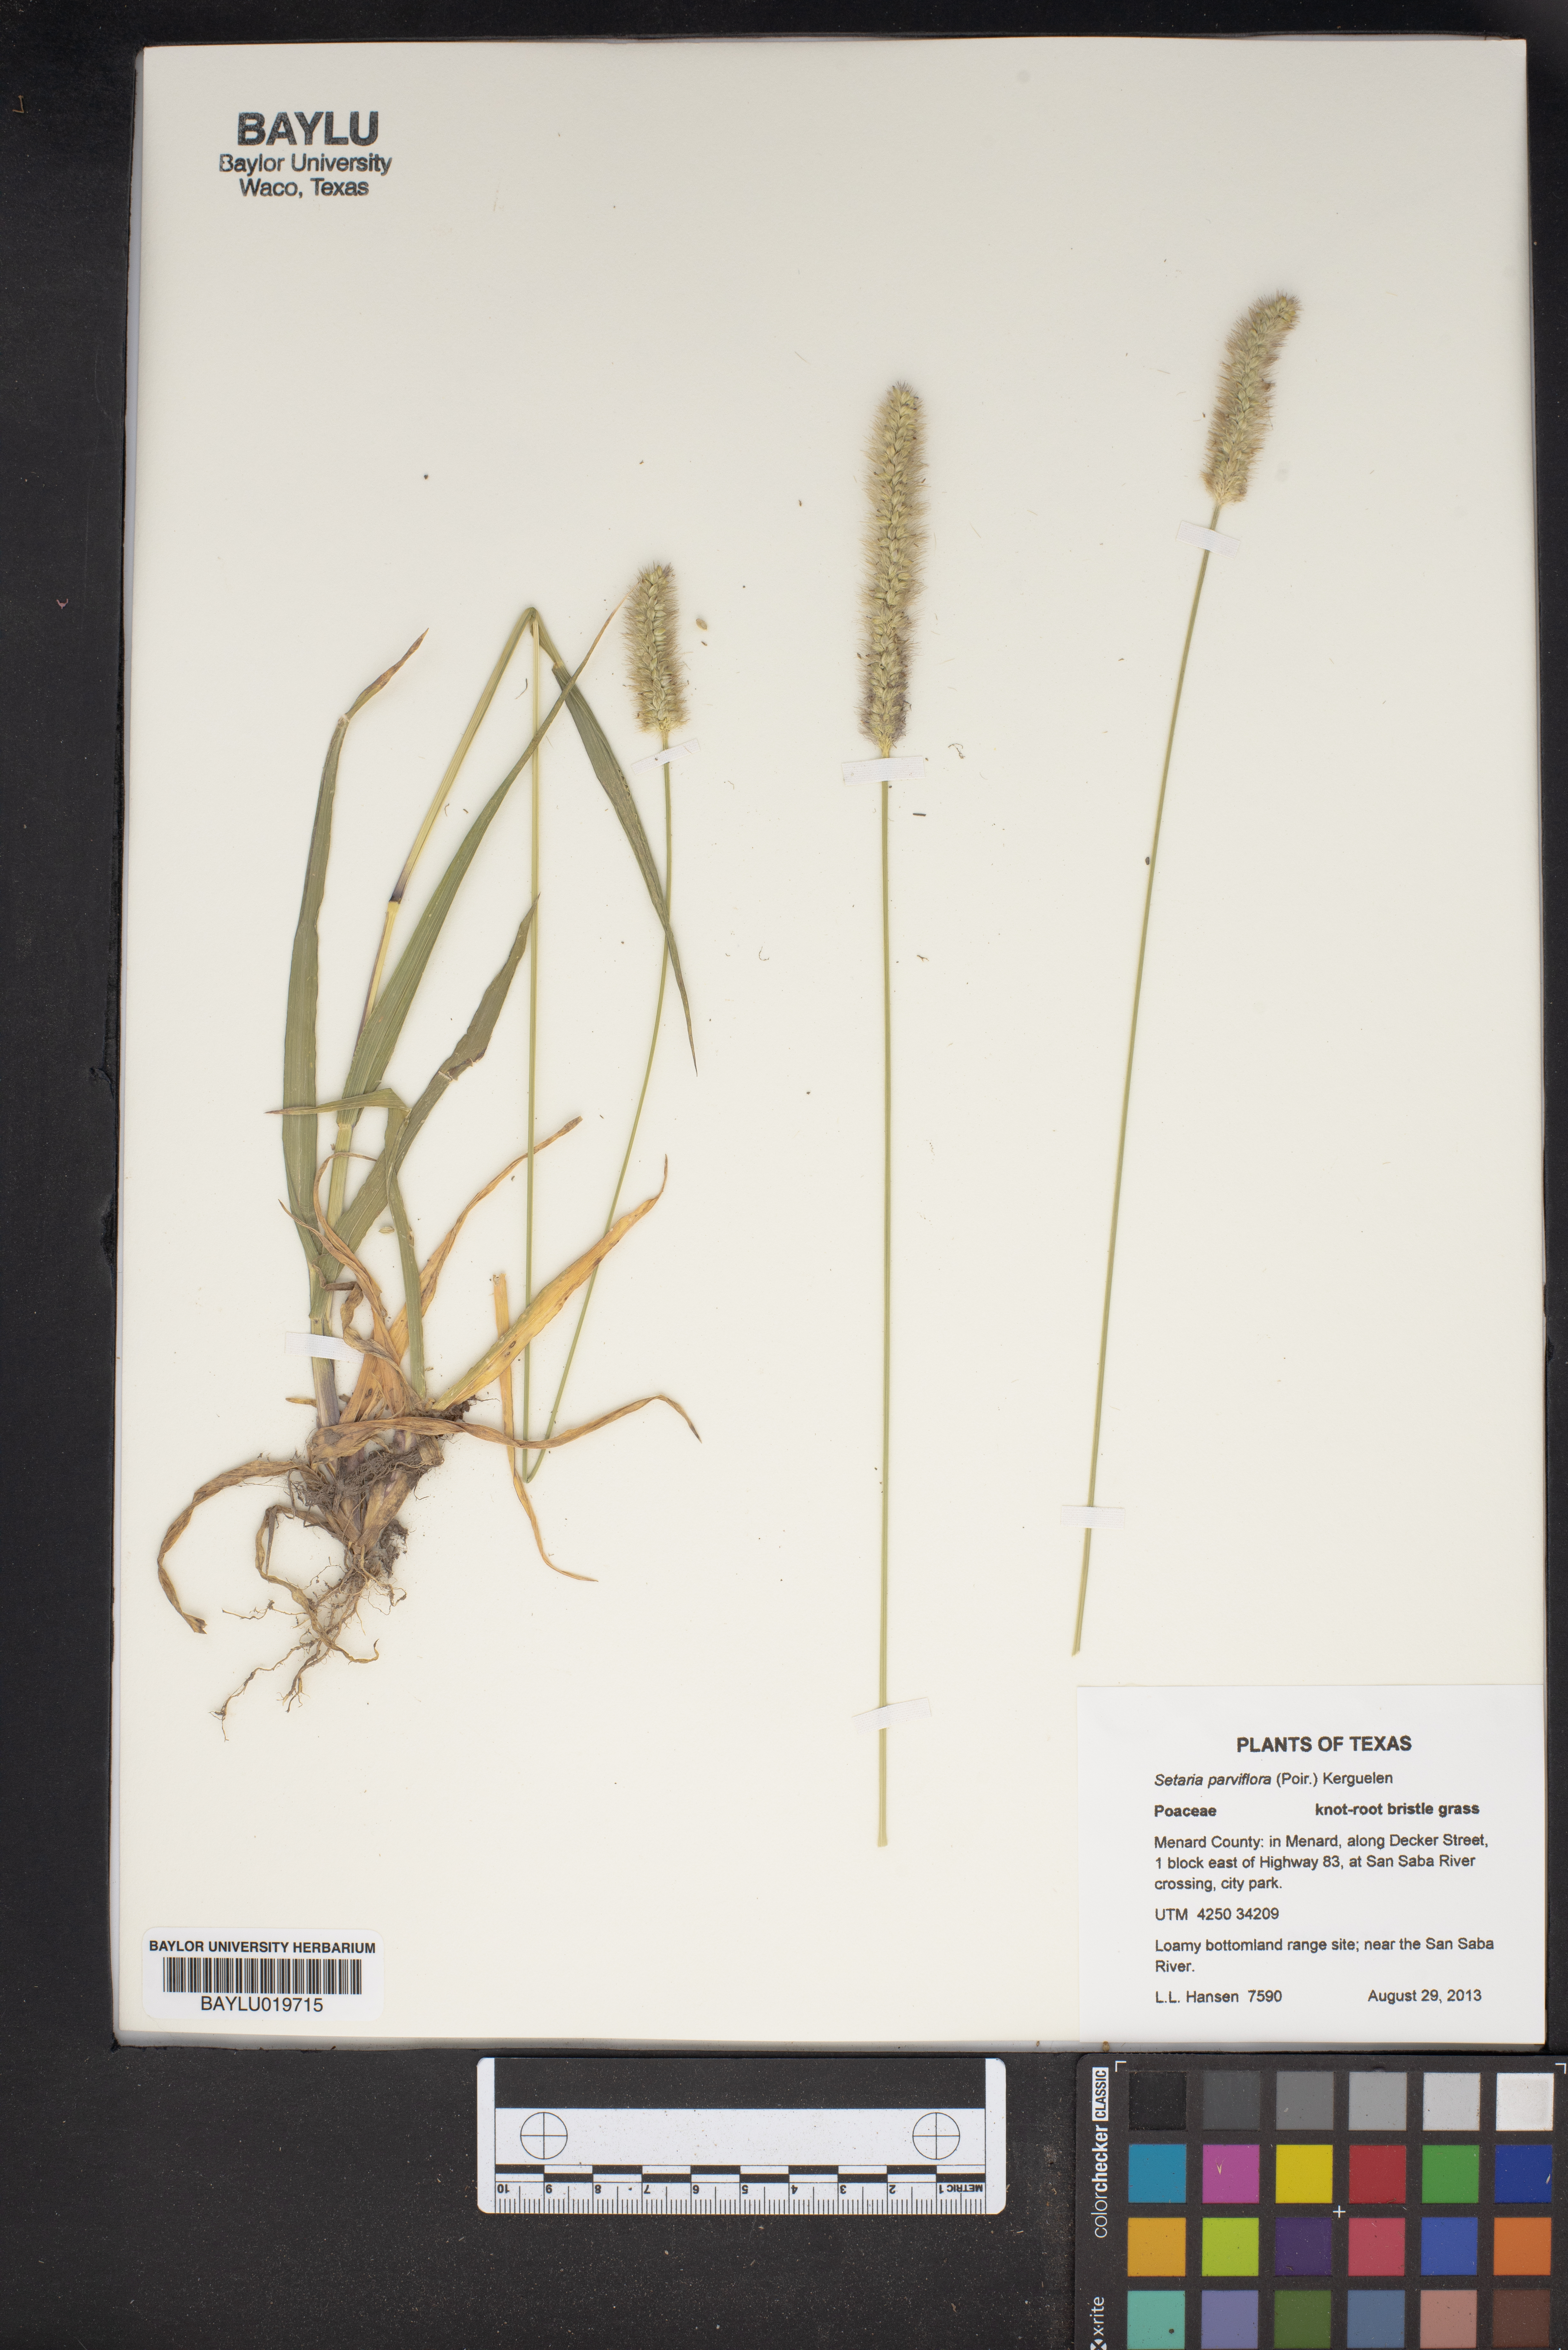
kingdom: Plantae
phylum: Tracheophyta
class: Liliopsida
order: Poales
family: Poaceae
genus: Setaria
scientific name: Setaria parviflora
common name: Knotroot bristle-grass
